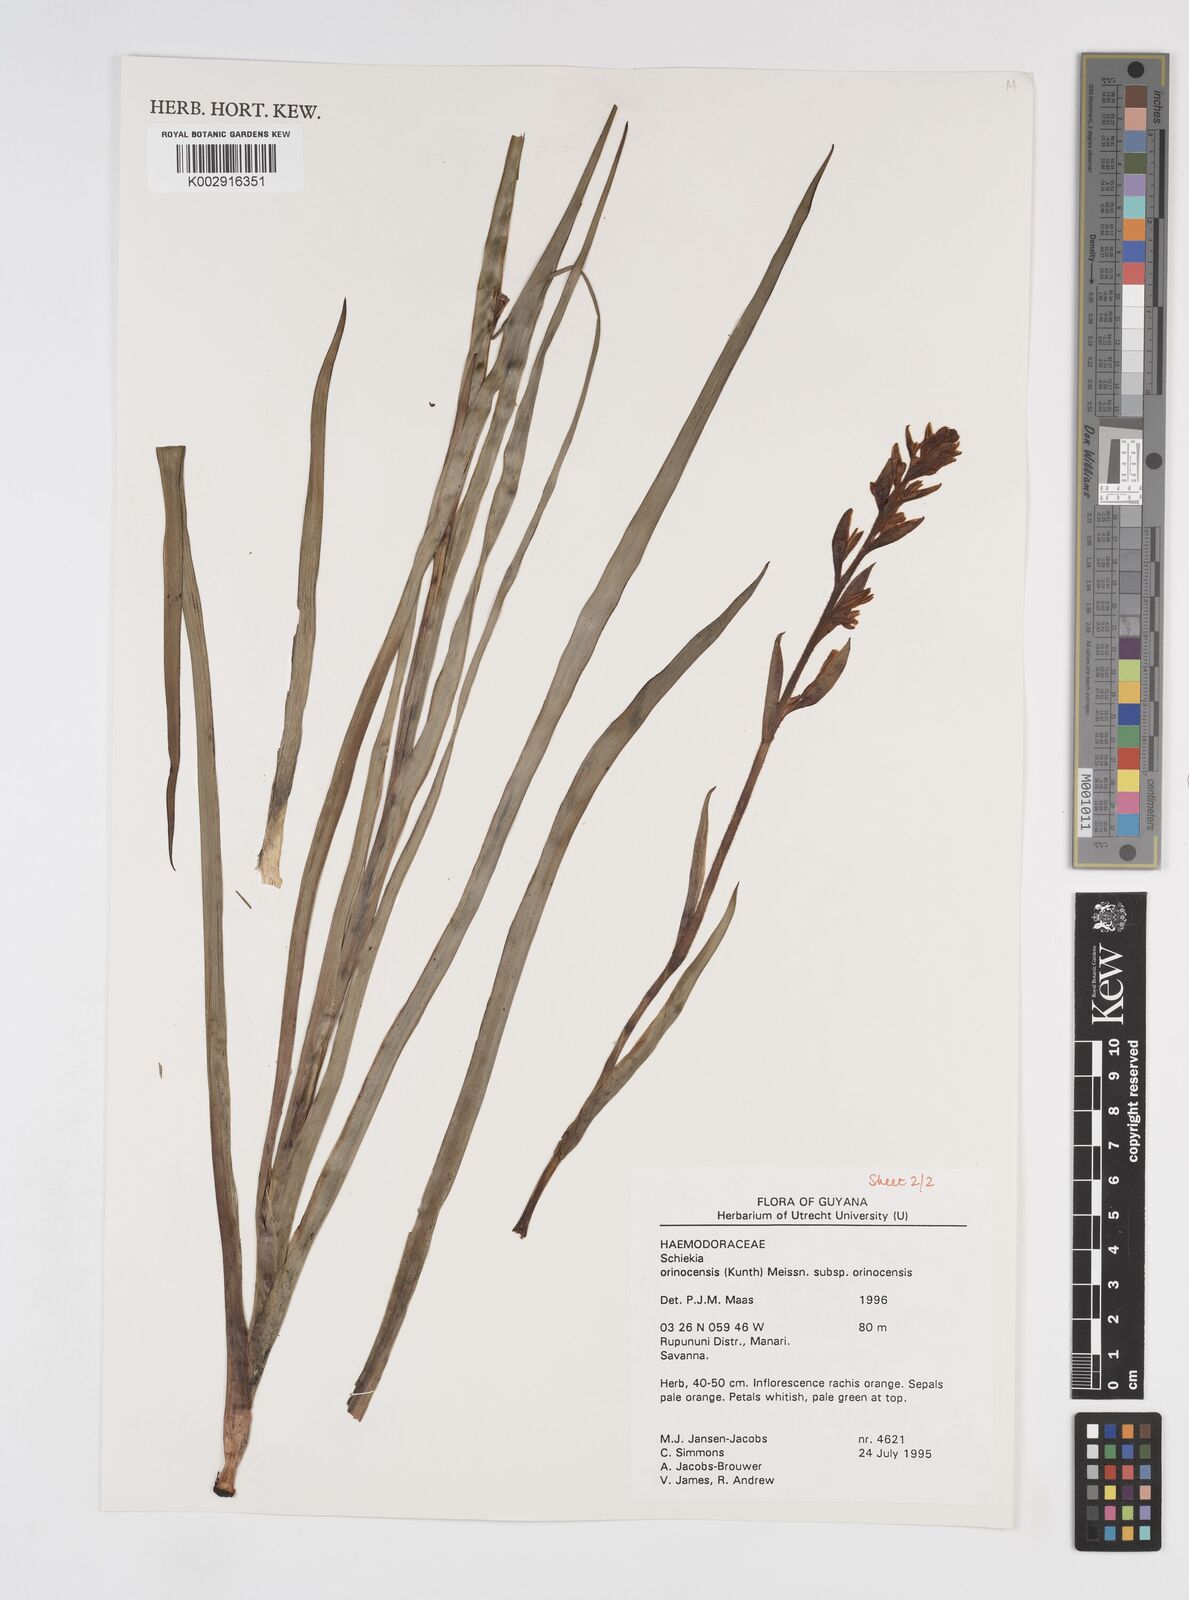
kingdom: Plantae
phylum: Tracheophyta
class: Liliopsida
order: Commelinales
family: Haemodoraceae
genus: Schiekia
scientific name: Schiekia orinocensis
